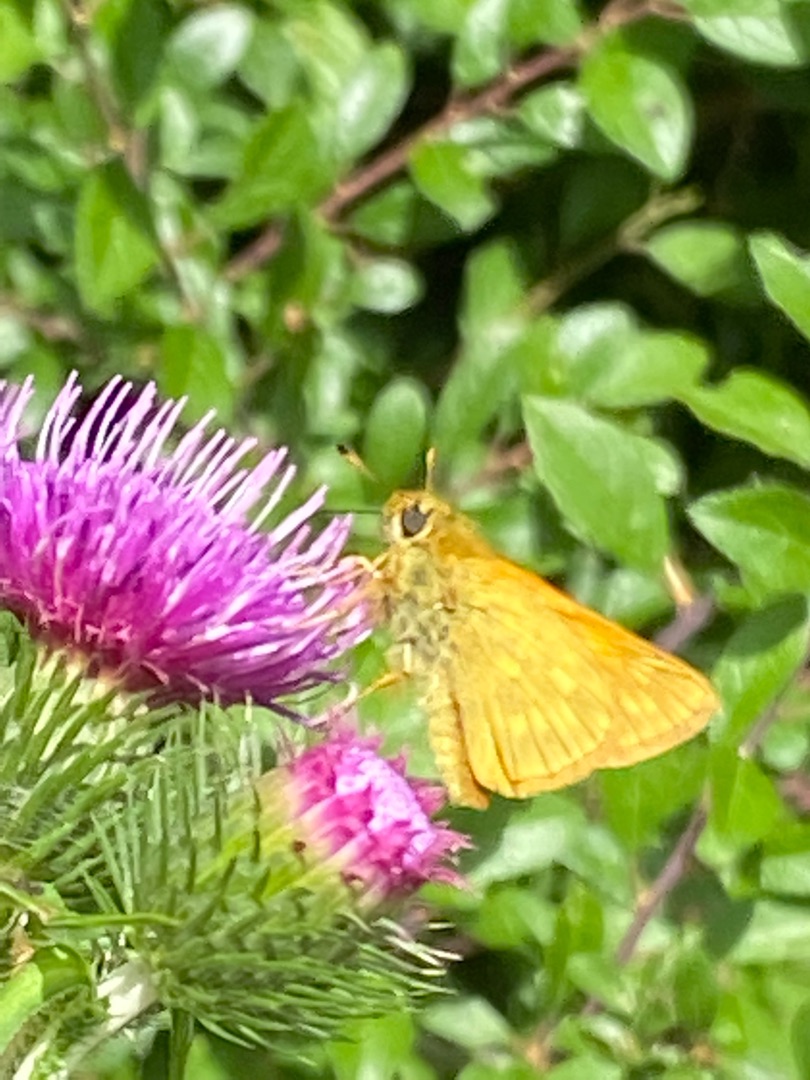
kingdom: Animalia
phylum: Arthropoda
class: Insecta
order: Lepidoptera
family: Hesperiidae
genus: Ochlodes
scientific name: Ochlodes venata
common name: Stor bredpande
